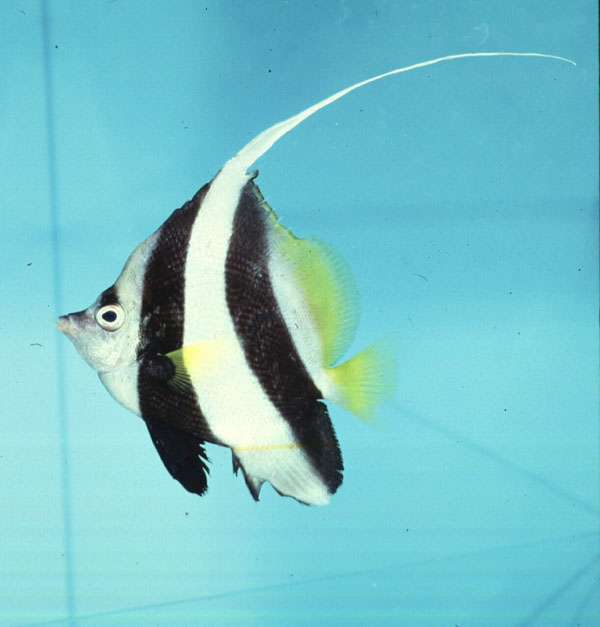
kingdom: Animalia
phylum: Chordata
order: Perciformes
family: Chaetodontidae
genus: Heniochus
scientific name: Heniochus acuminatus
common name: Pennant coralfish
